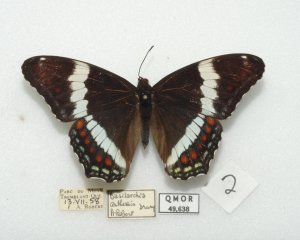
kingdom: Animalia
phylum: Arthropoda
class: Insecta
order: Lepidoptera
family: Nymphalidae
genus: Limenitis
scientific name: Limenitis arthemis
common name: Red-spotted Admiral
